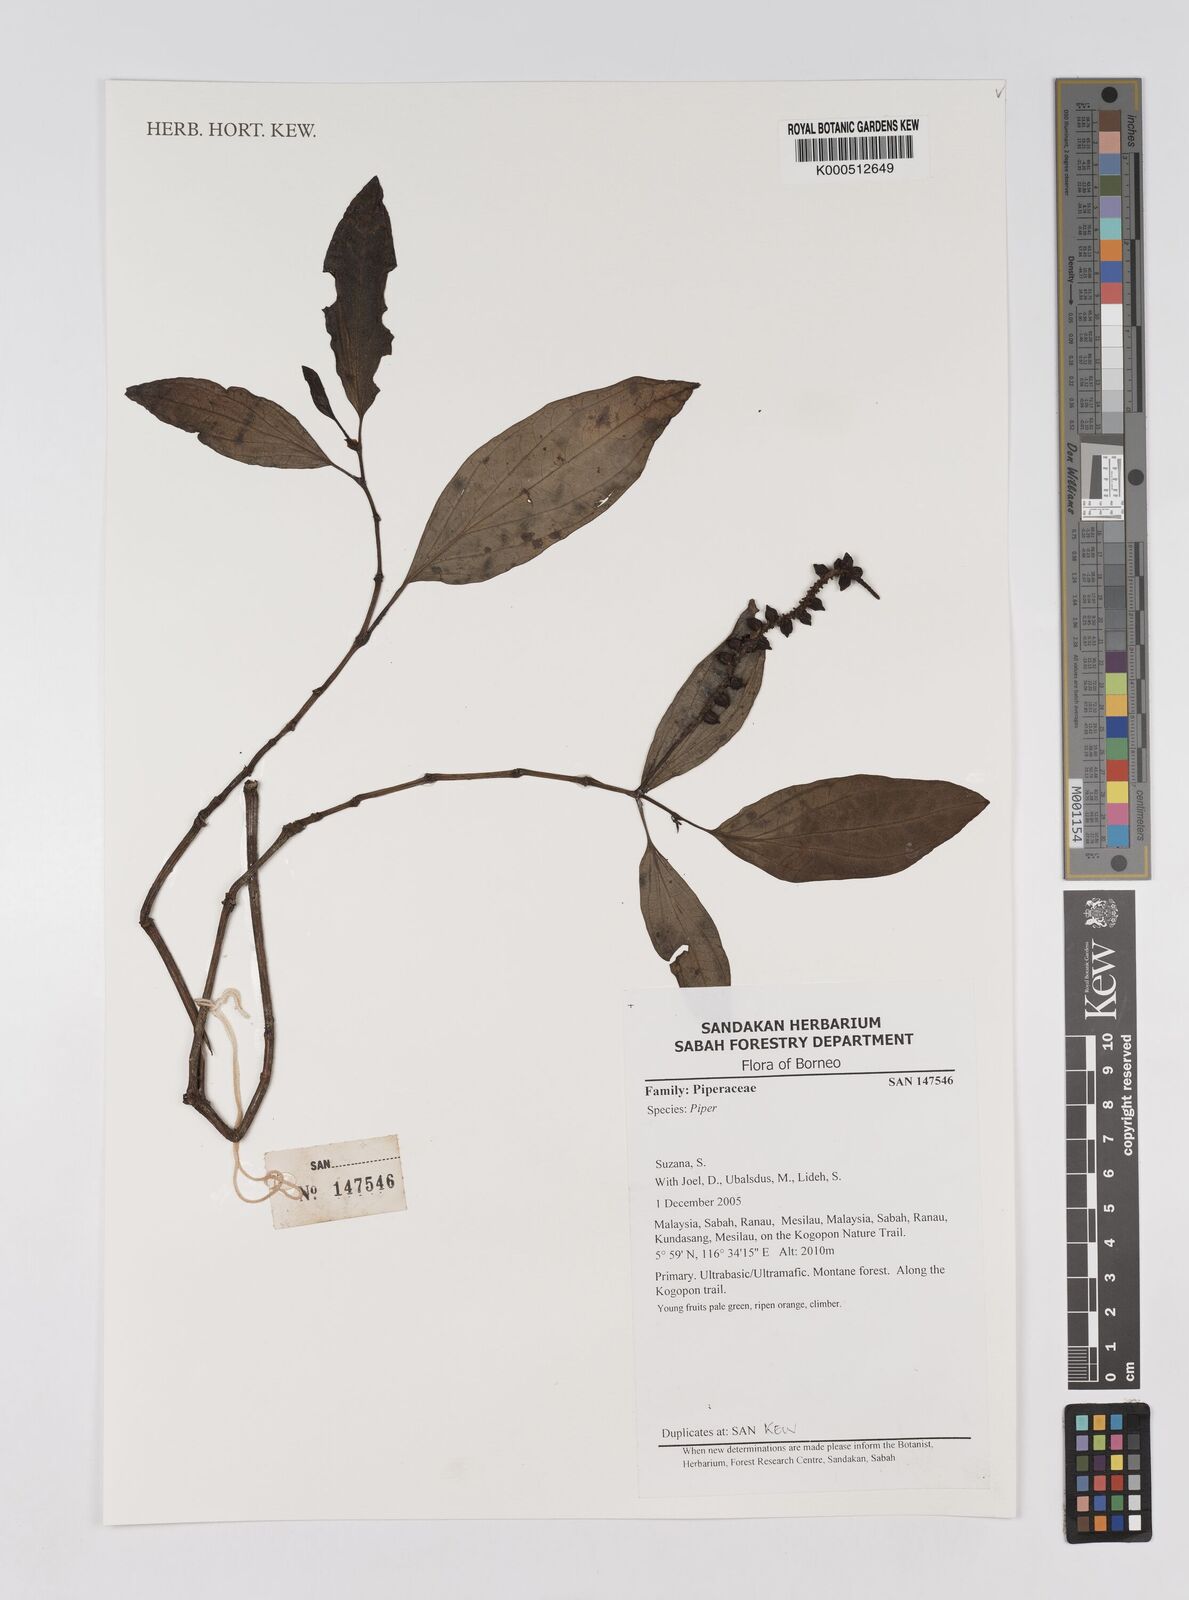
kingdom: Plantae
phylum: Tracheophyta
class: Magnoliopsida
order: Piperales
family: Piperaceae
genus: Piper
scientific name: Piper
